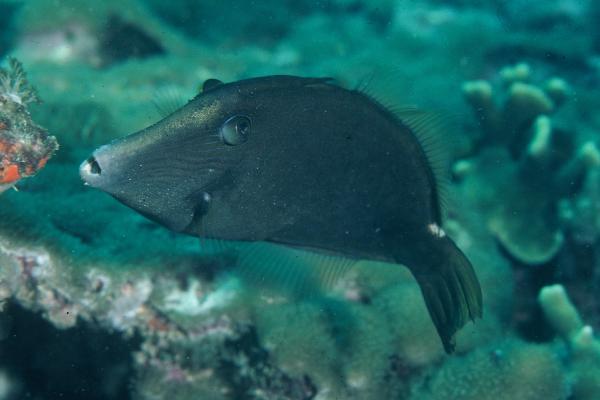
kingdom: Animalia
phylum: Chordata
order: Tetraodontiformes
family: Monacanthidae
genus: Cantherhines
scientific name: Cantherhines pardalis
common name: Honeycomb filefish
